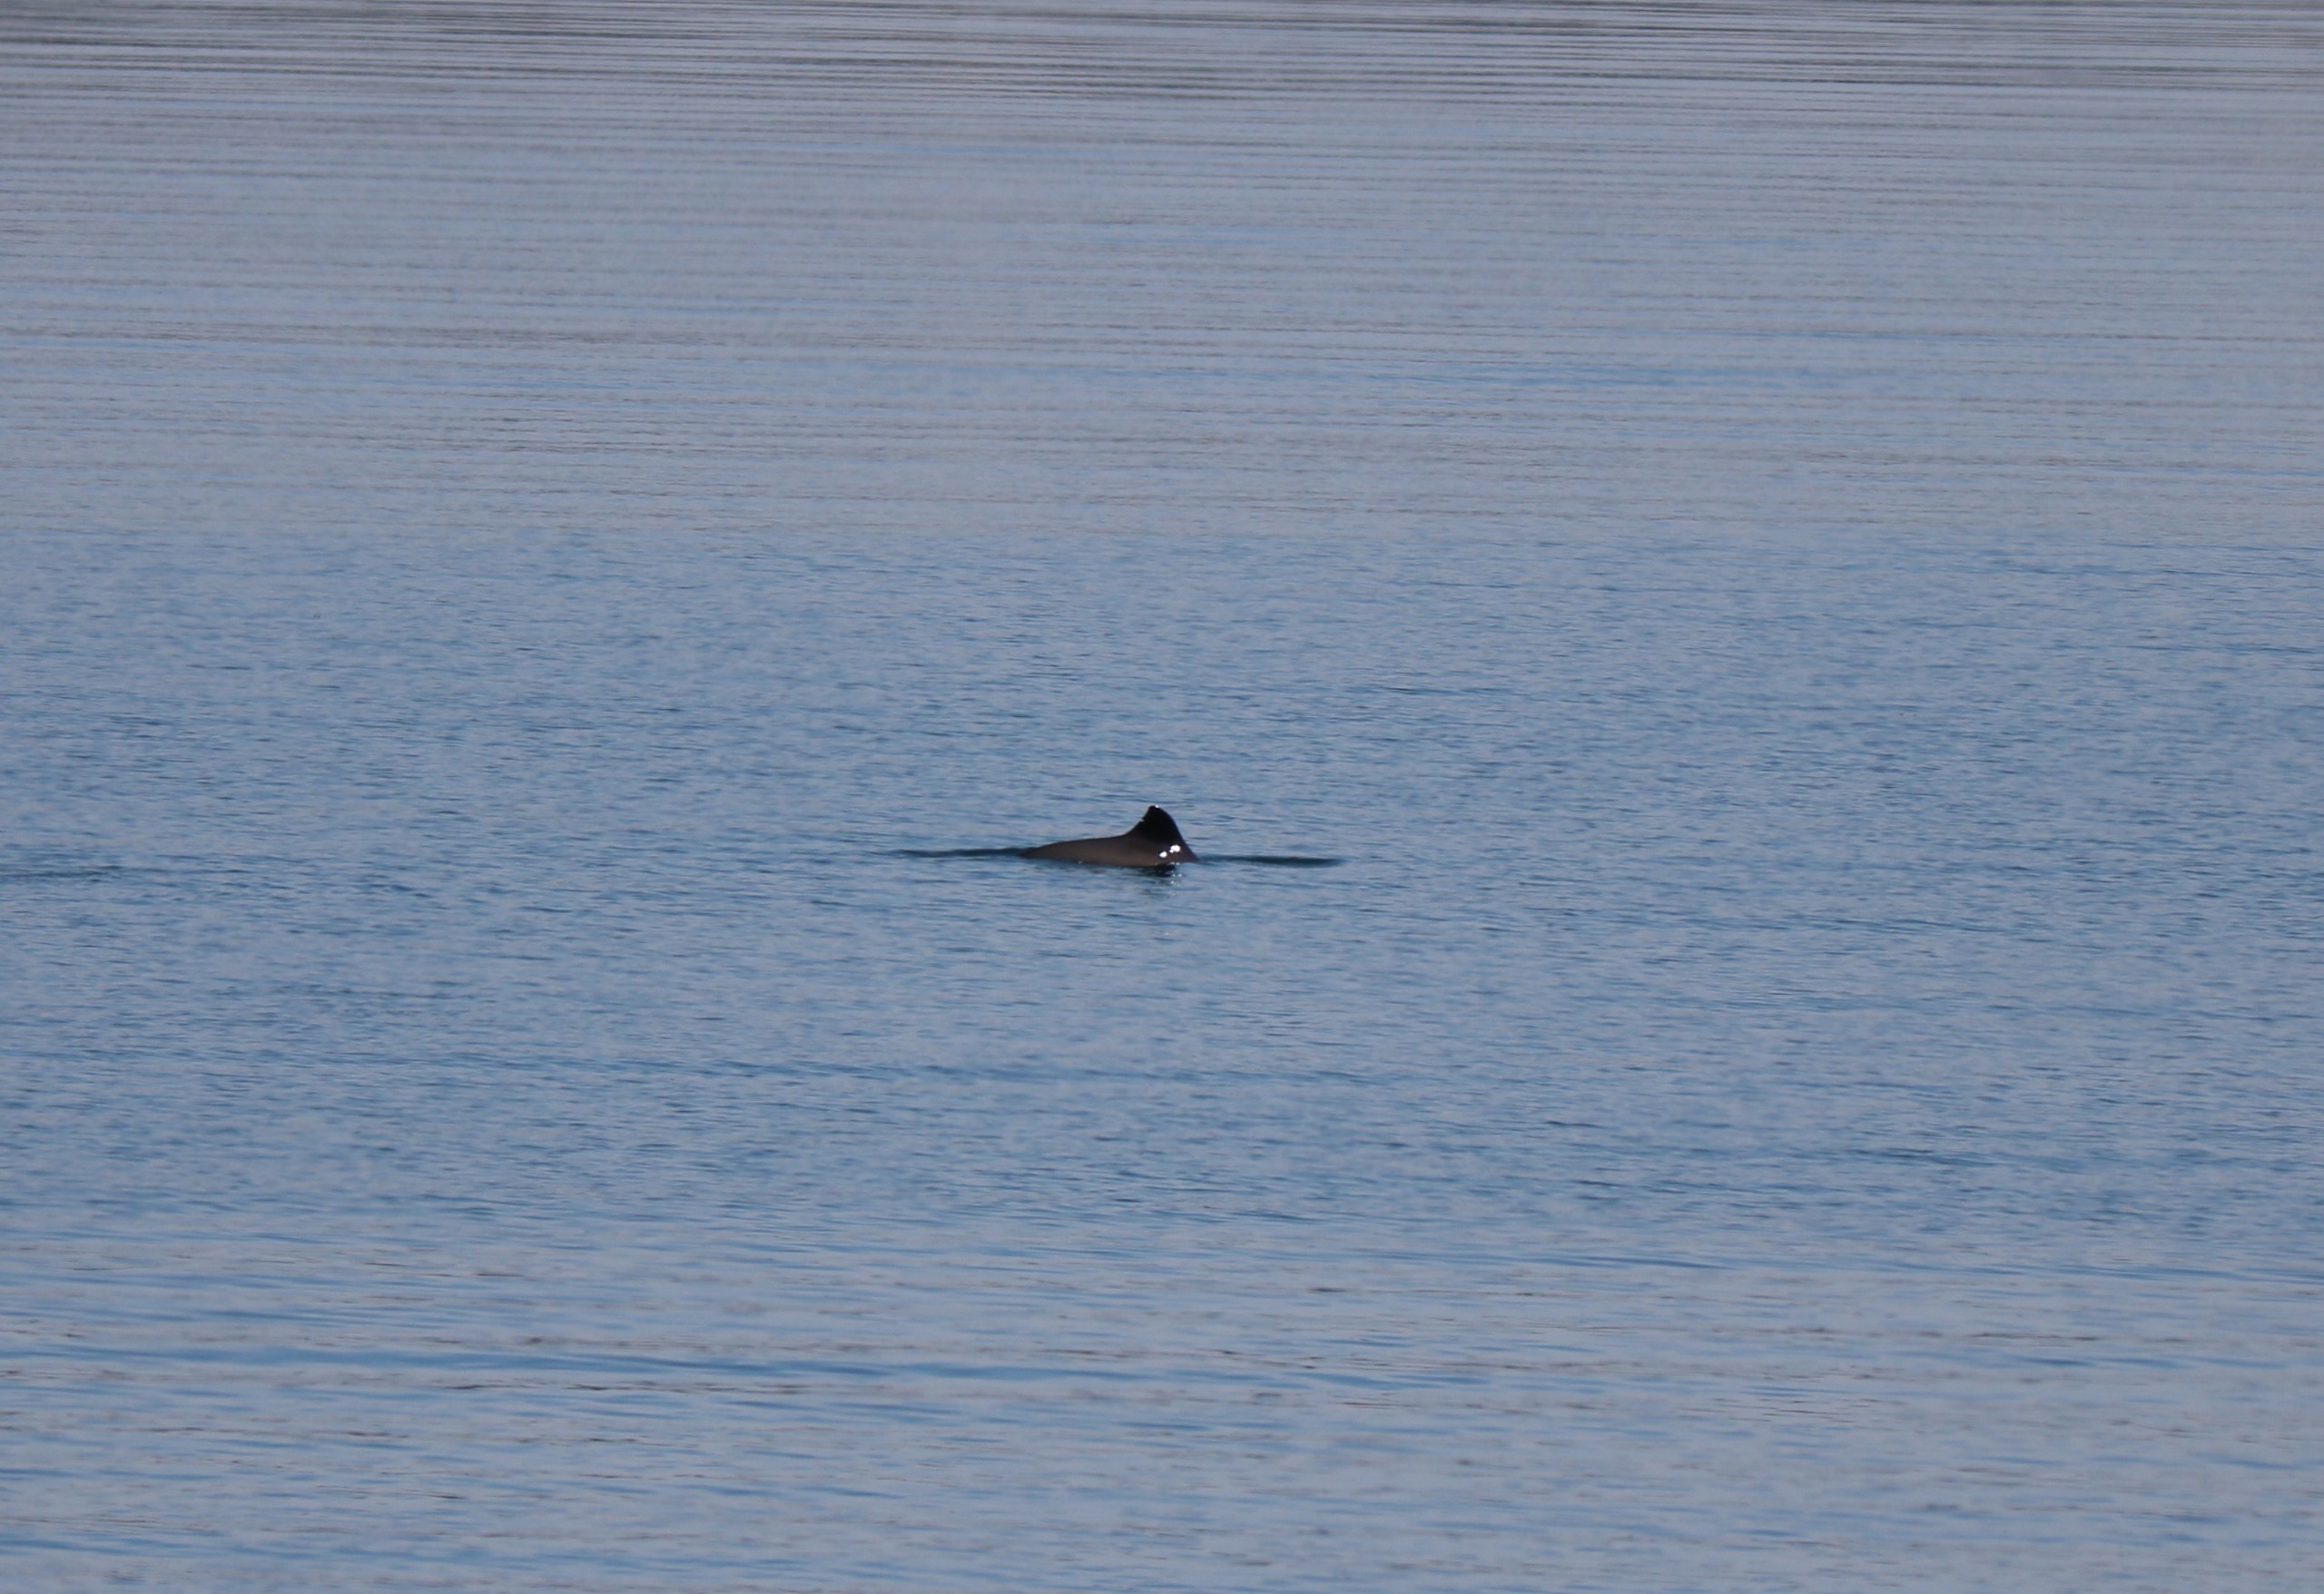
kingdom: Animalia
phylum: Chordata
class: Mammalia
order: Cetacea
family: Phocoenidae
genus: Phocoena
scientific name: Phocoena phocoena
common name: Marsvin
